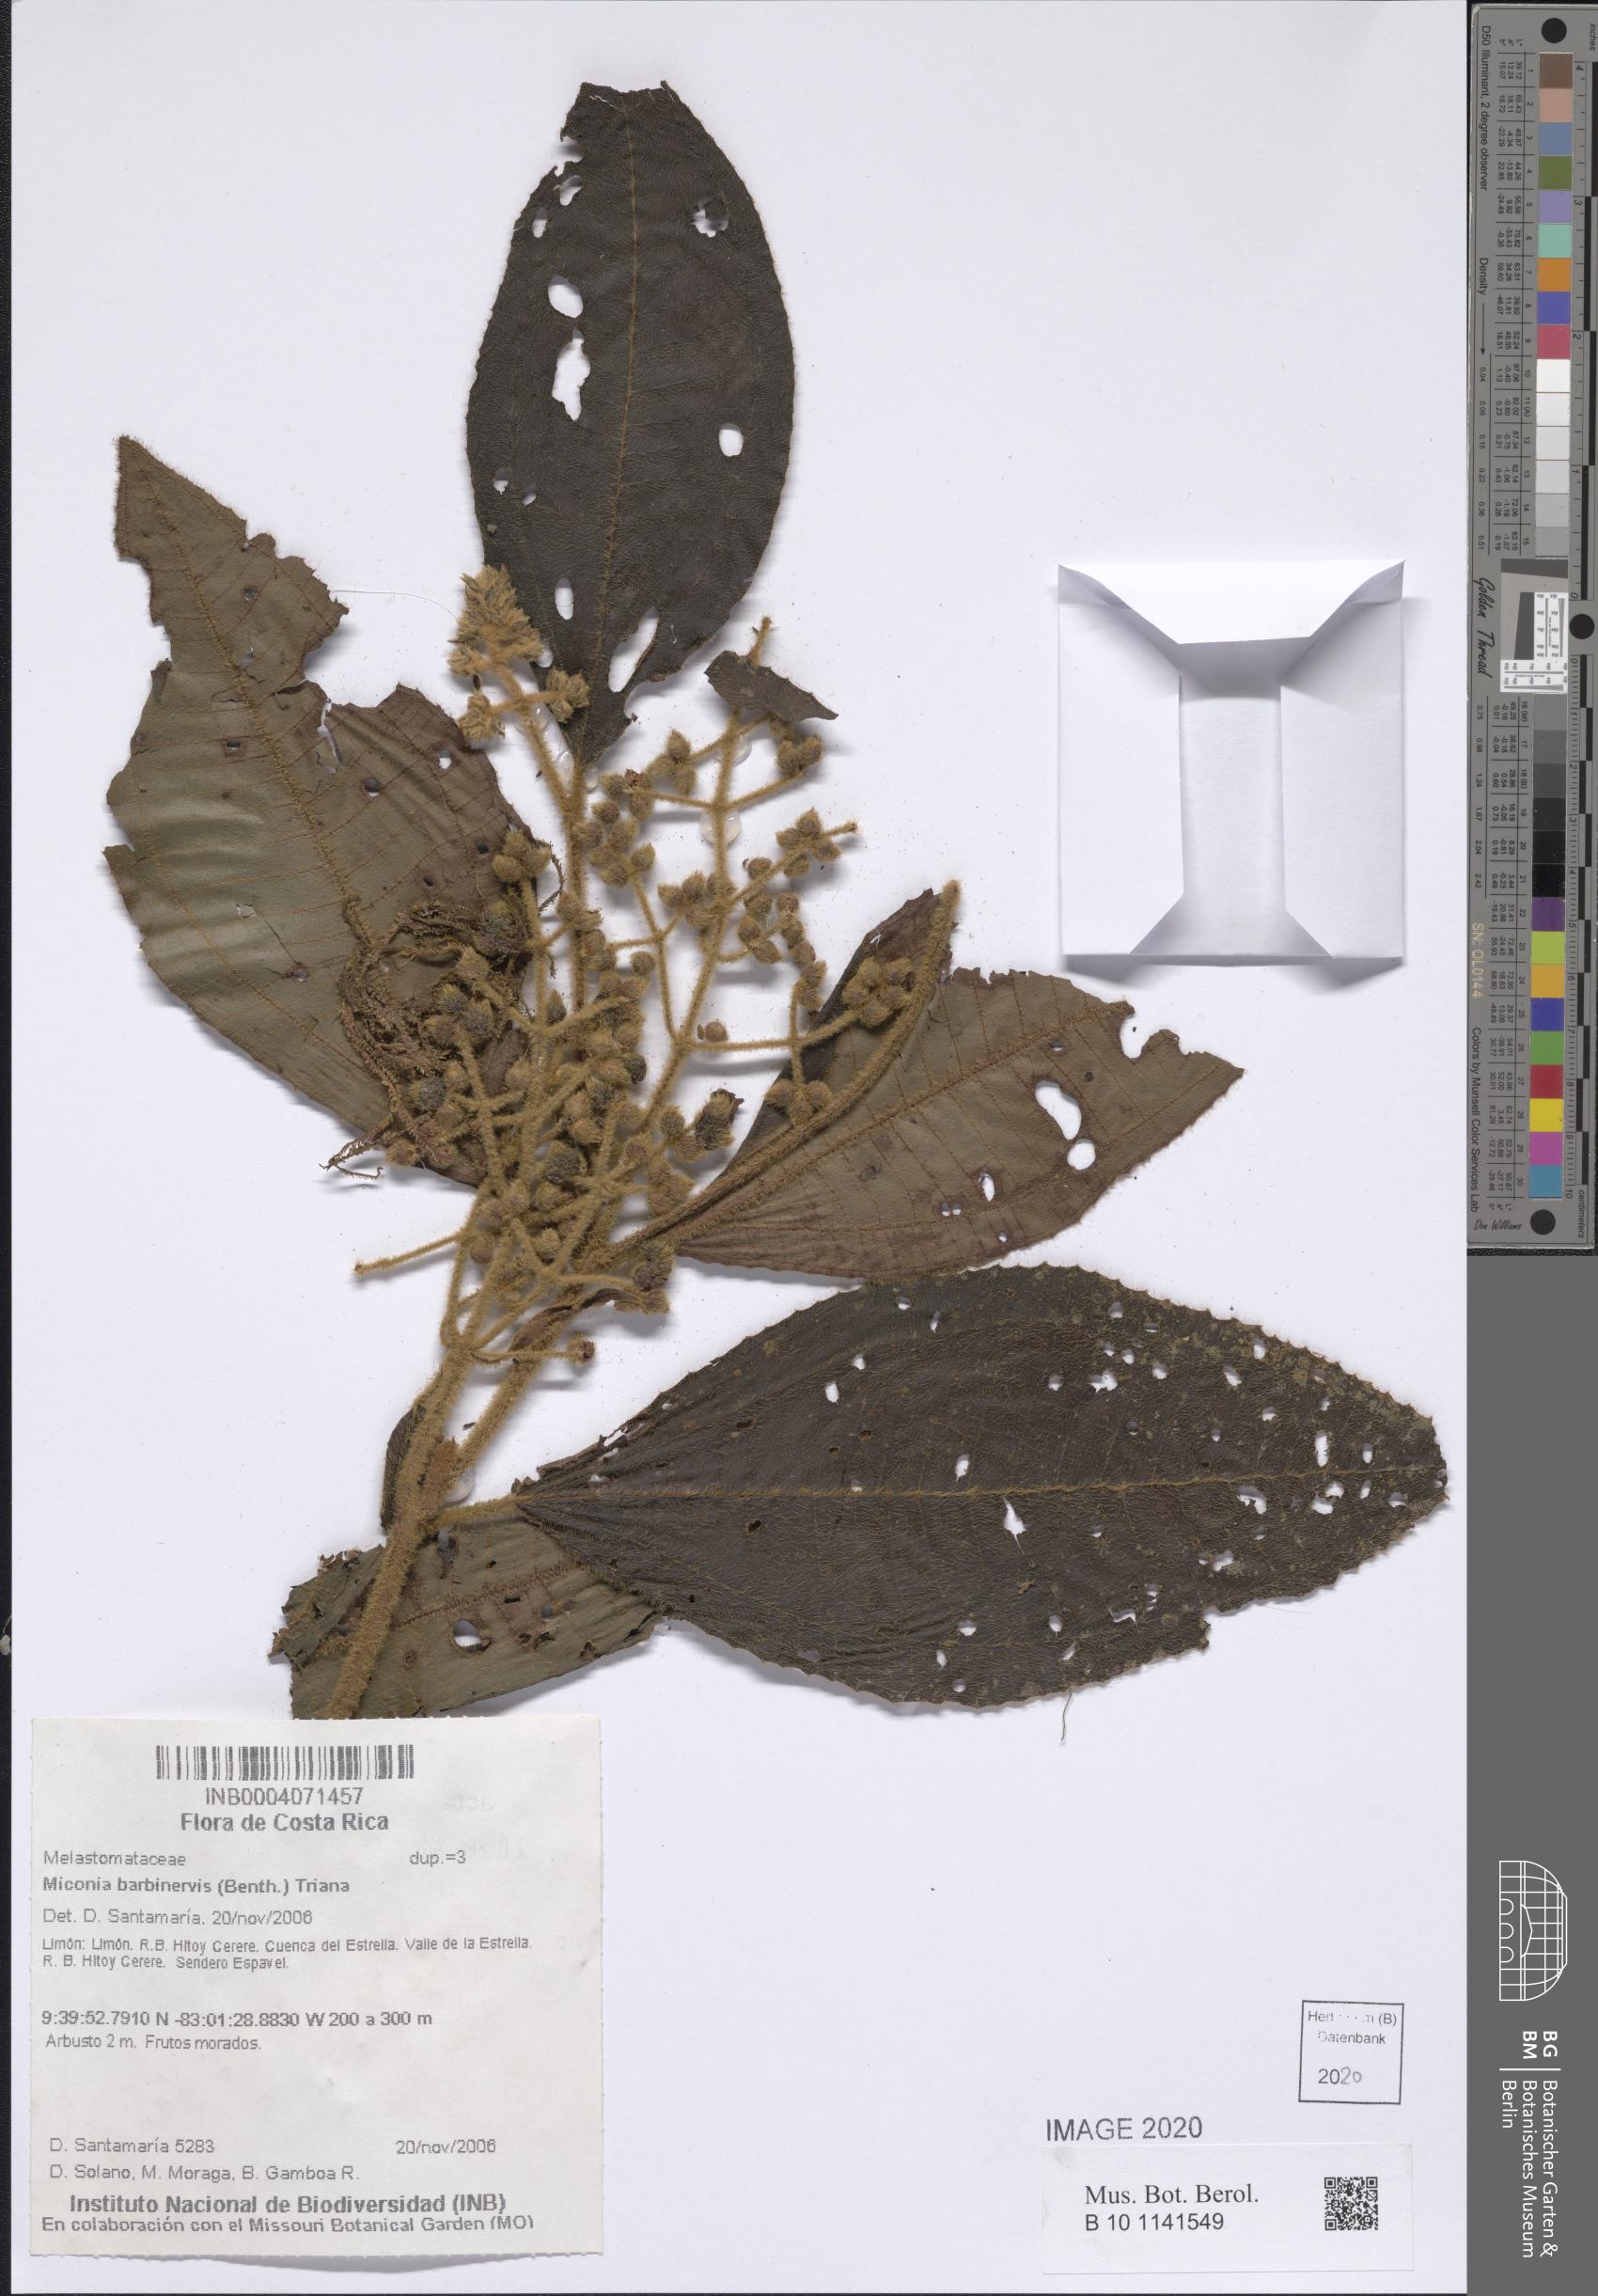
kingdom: Plantae
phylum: Tracheophyta
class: Magnoliopsida
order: Myrtales
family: Melastomataceae
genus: Miconia
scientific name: Miconia barbinervis
